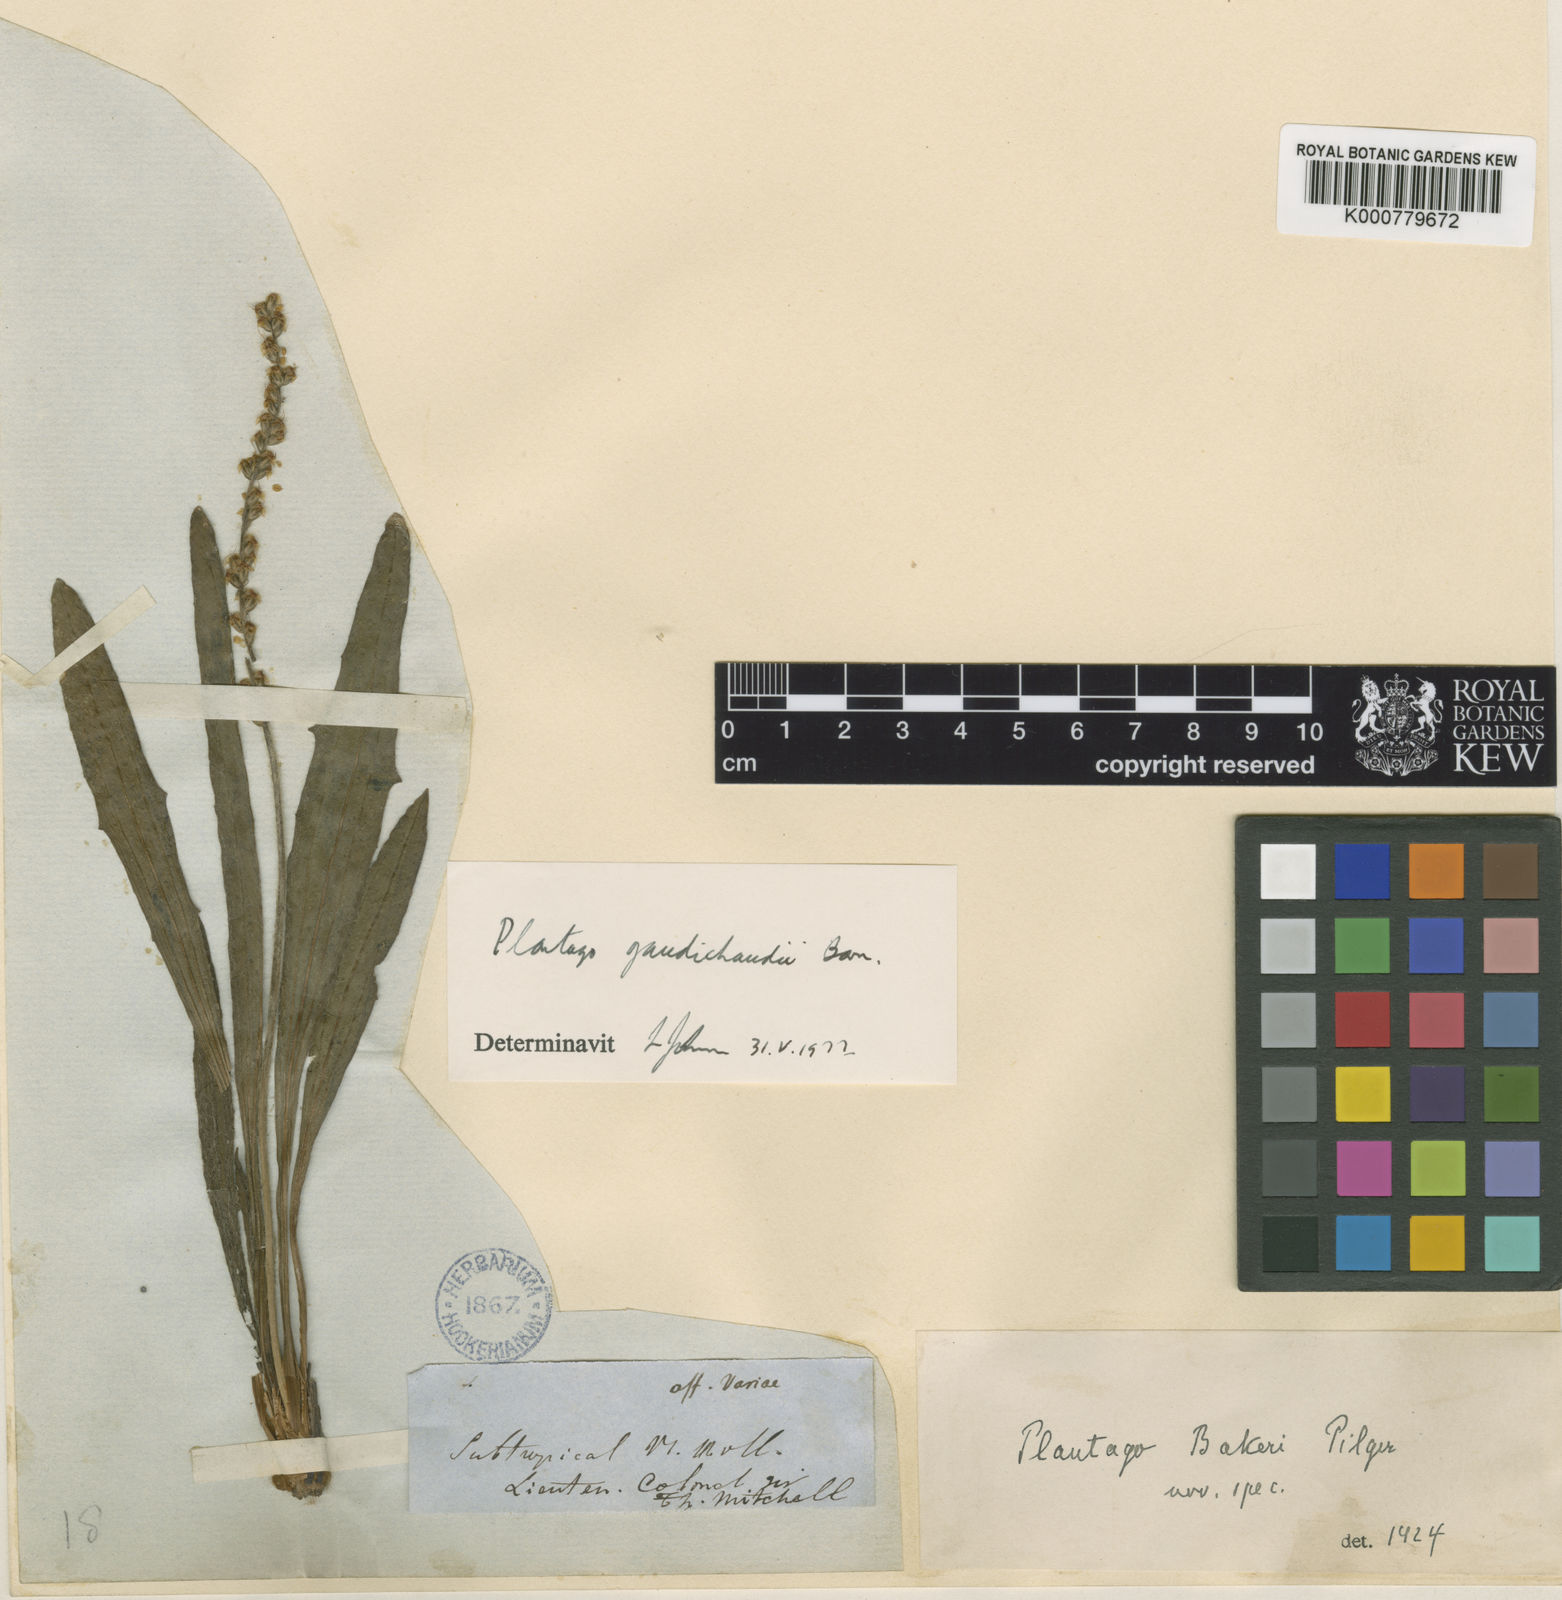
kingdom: Plantae
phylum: Tracheophyta
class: Magnoliopsida
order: Lamiales
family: Plantaginaceae
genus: Plantago
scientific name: Plantago
